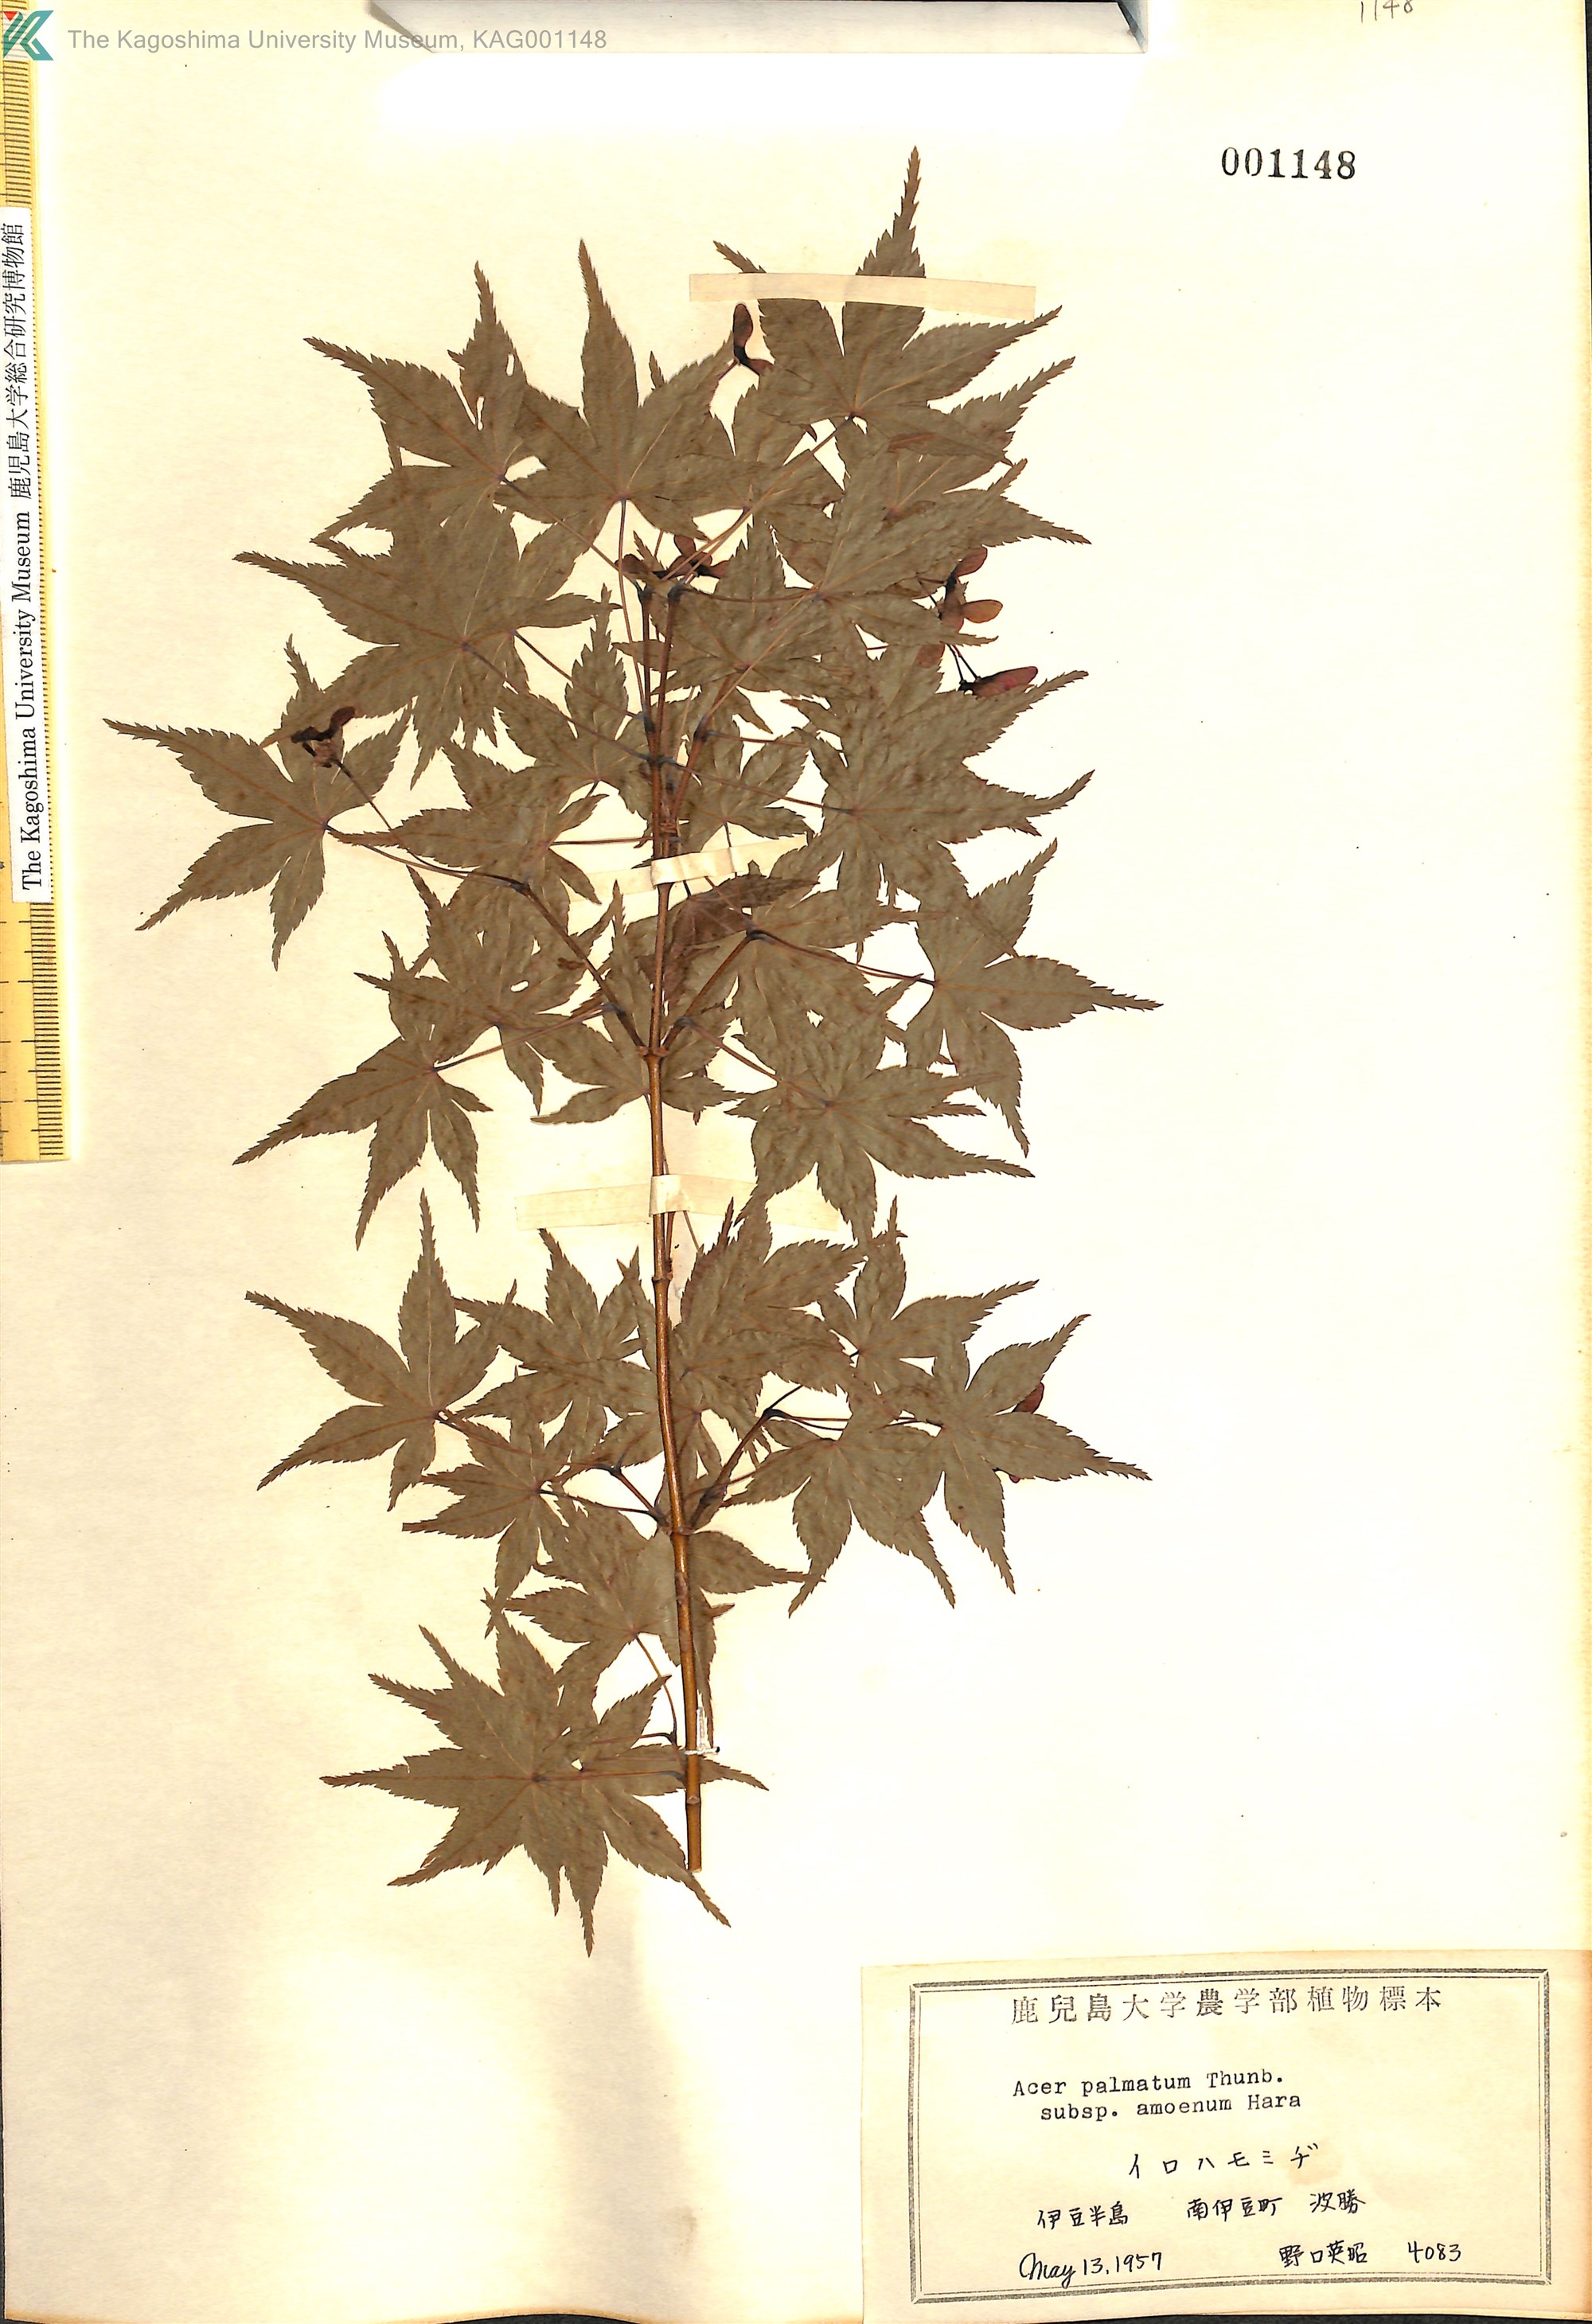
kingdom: Plantae
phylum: Tracheophyta
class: Magnoliopsida
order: Sapindales
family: Sapindaceae
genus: Acer
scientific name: Acer palmatum
